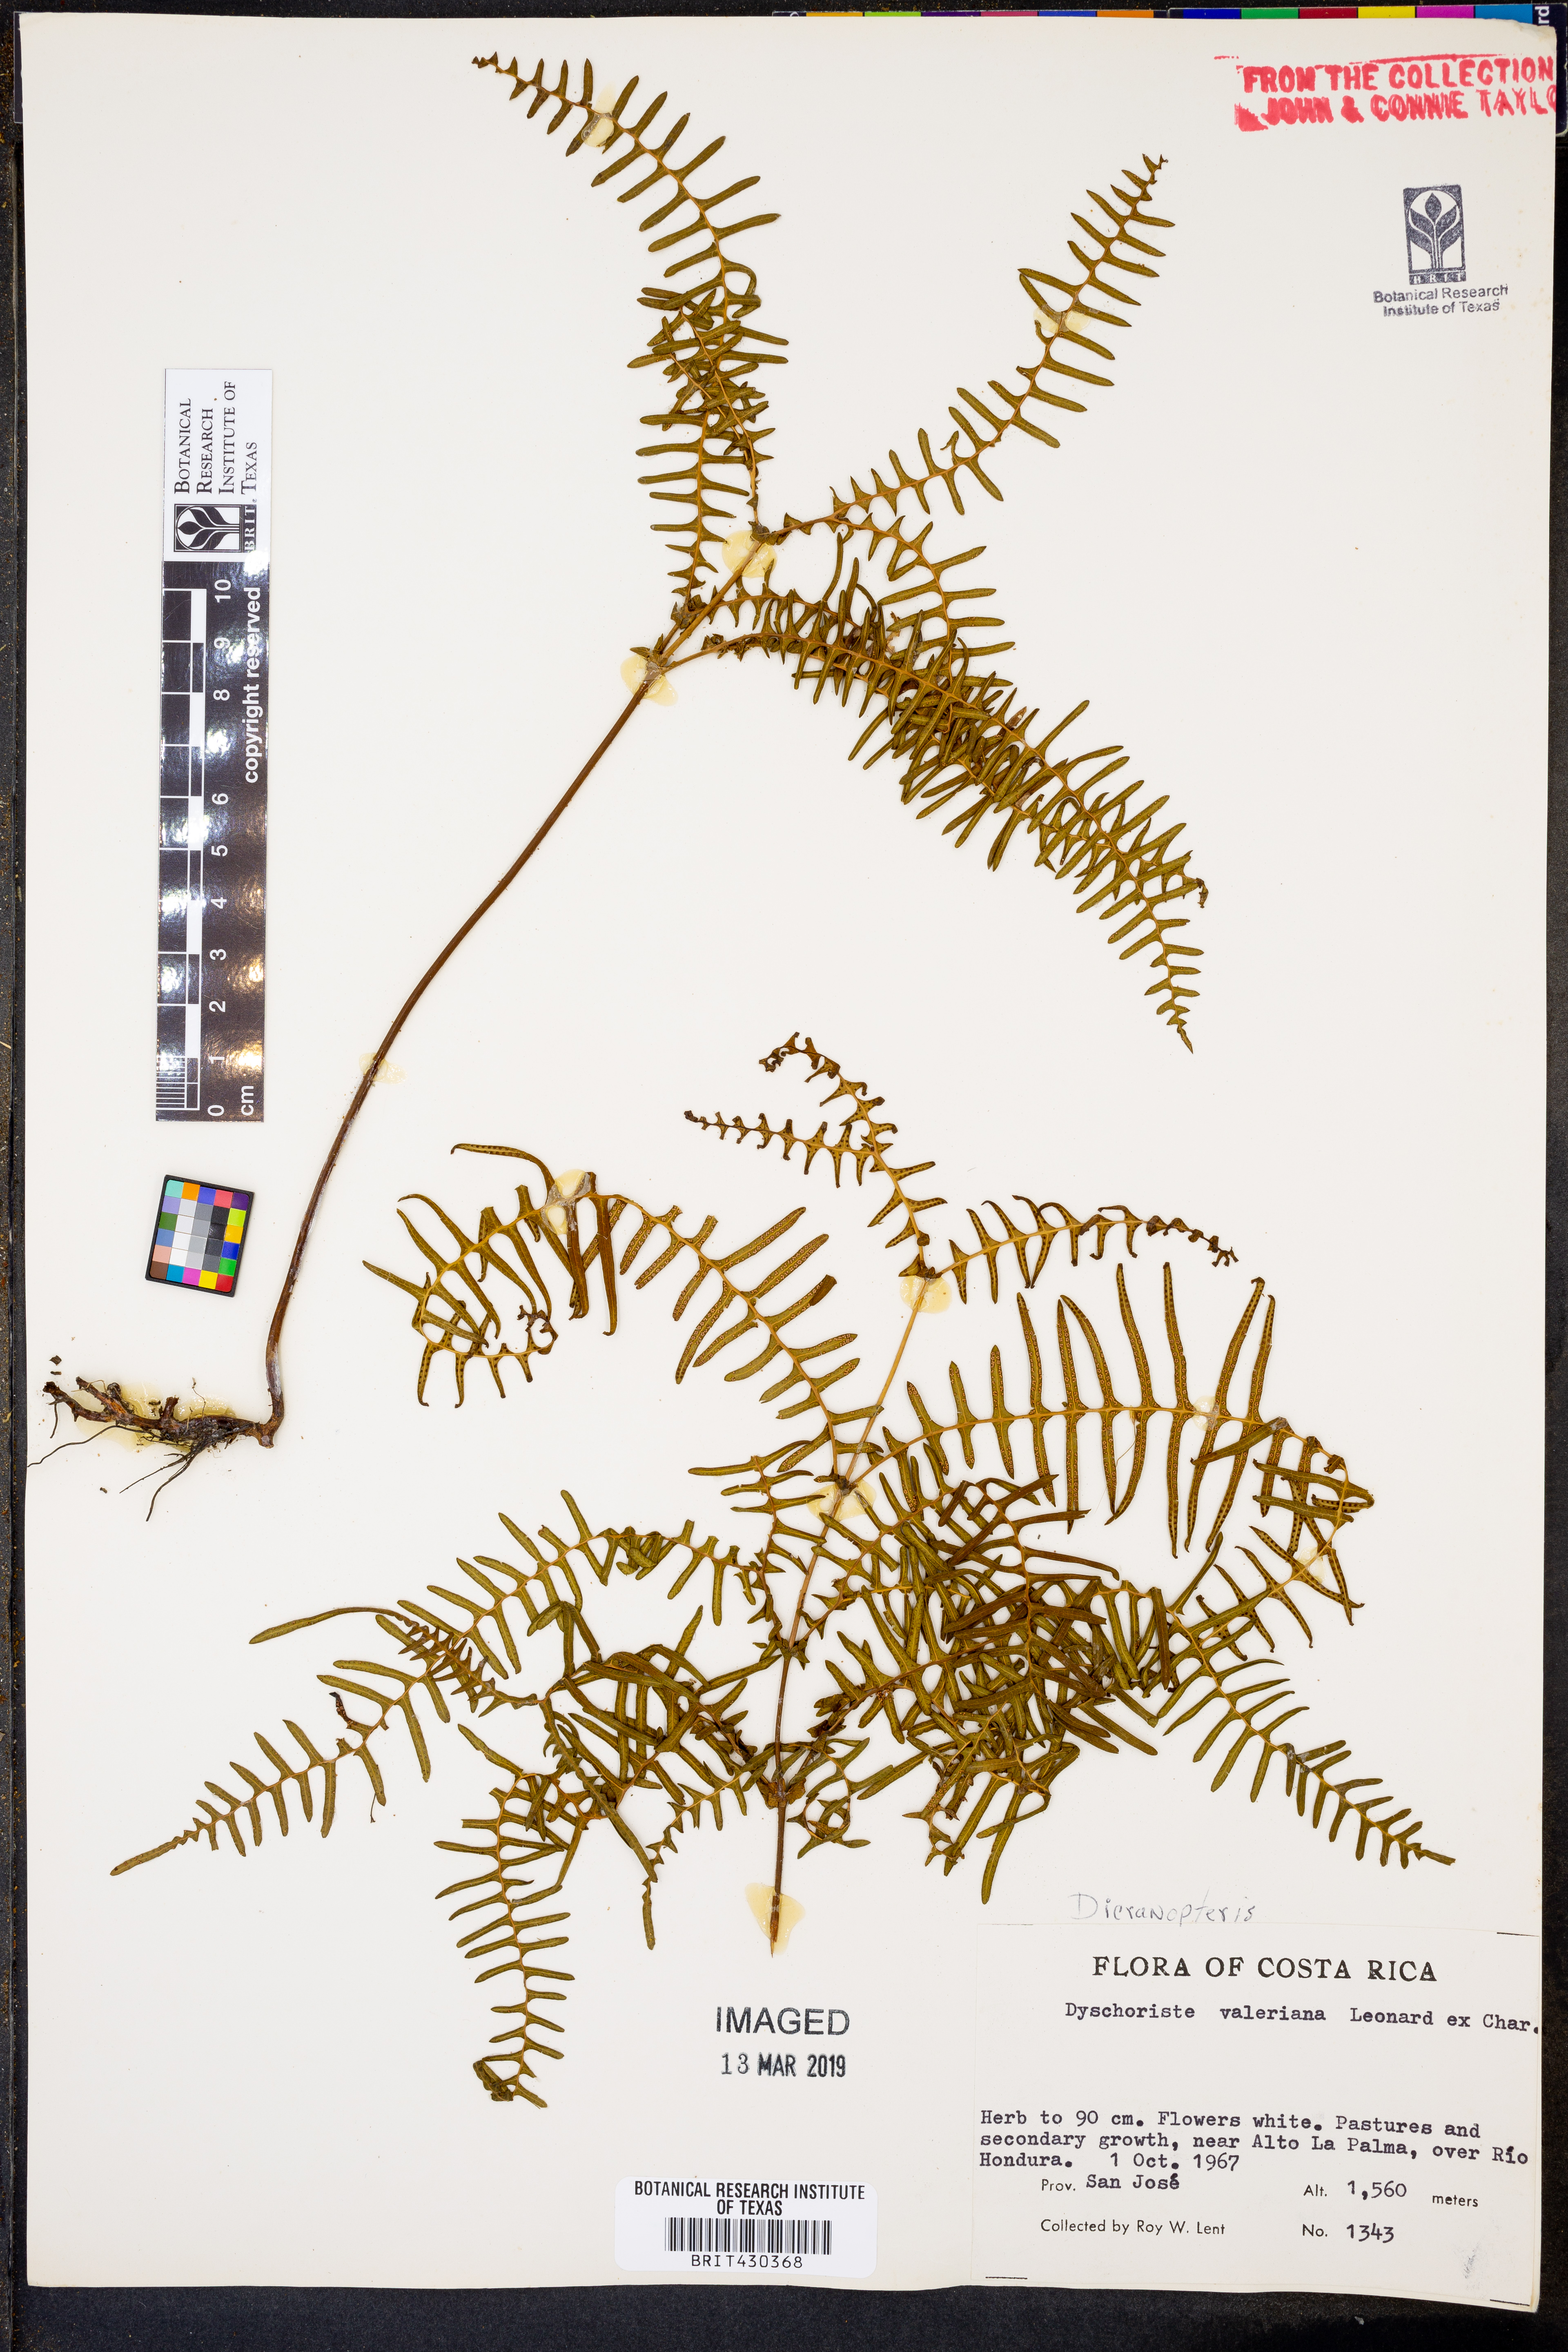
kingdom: Plantae
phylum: Tracheophyta
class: Polypodiopsida
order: Gleicheniales
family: Gleicheniaceae
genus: Dicranopteris
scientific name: Dicranopteris
